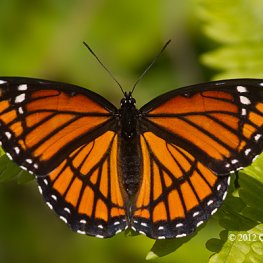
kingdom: Animalia
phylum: Arthropoda
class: Insecta
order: Lepidoptera
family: Nymphalidae
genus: Limenitis
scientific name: Limenitis archippus
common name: Viceroy
